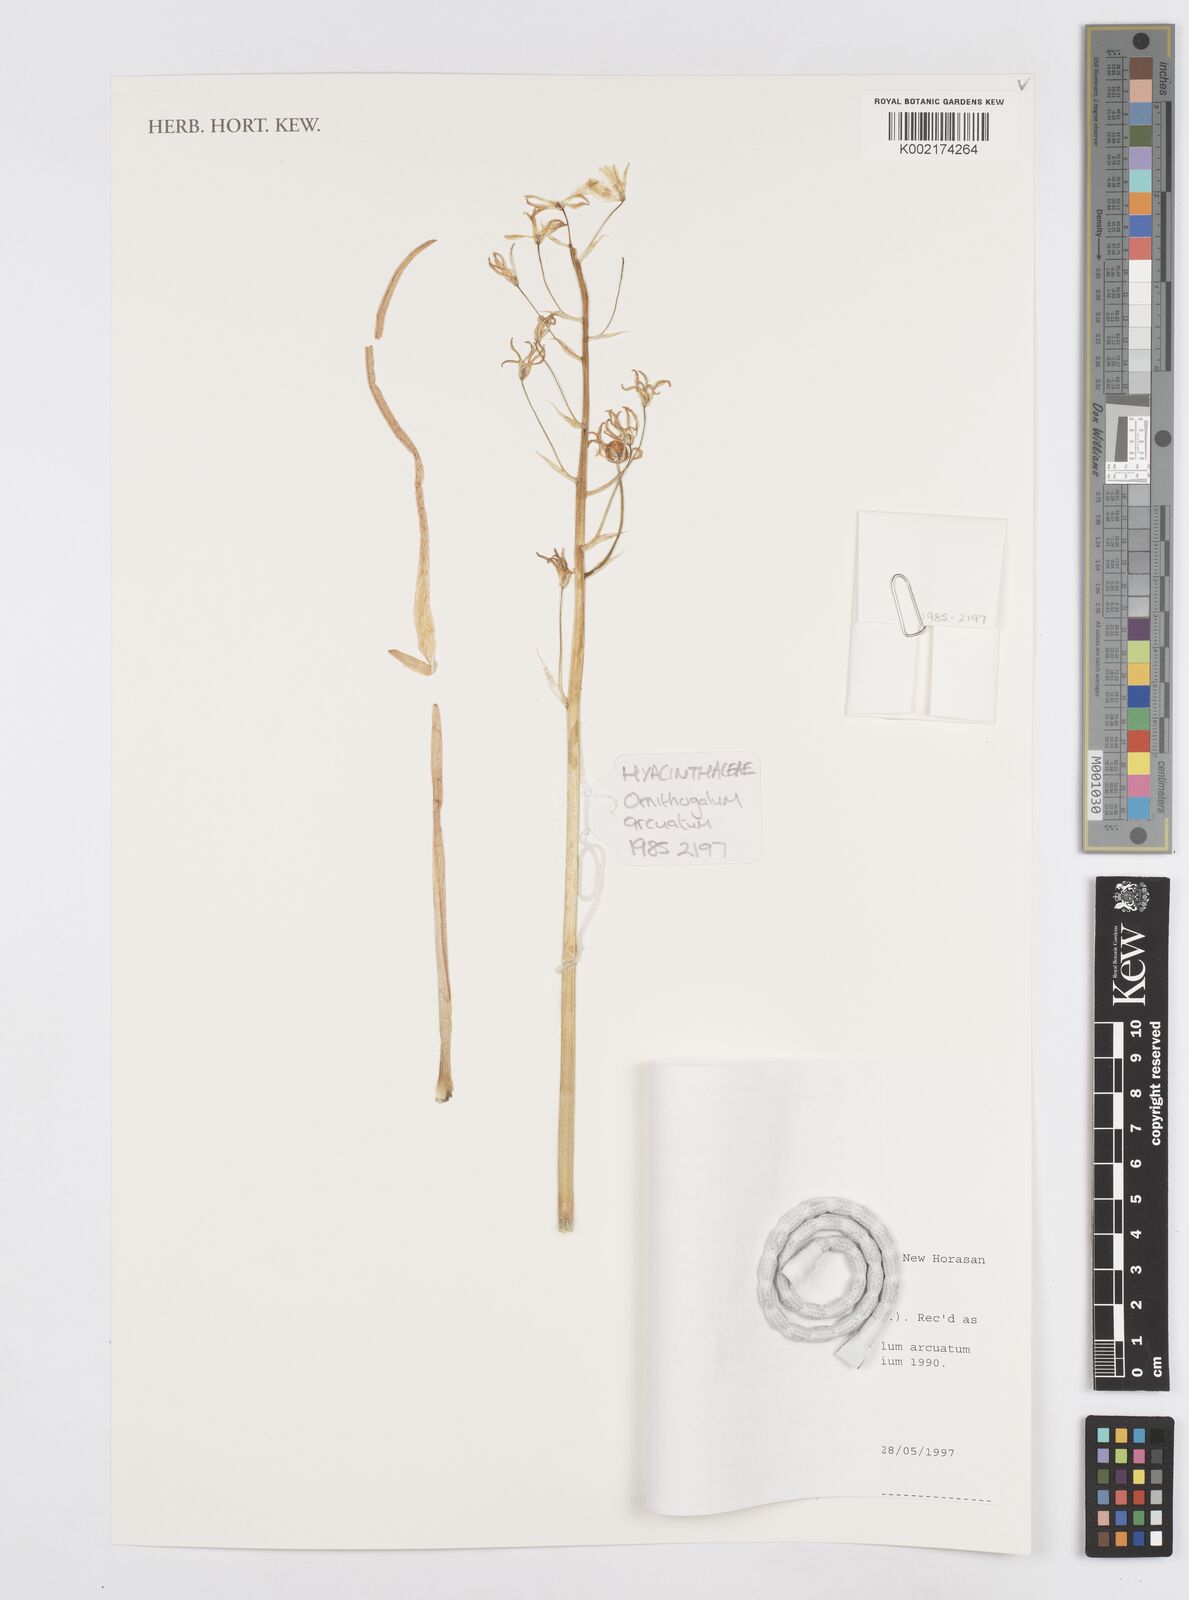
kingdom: Plantae
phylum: Tracheophyta
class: Liliopsida
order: Asparagales
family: Asparagaceae
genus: Ornithogalum
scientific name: Ornithogalum narbonense
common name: Bath-asparagus
